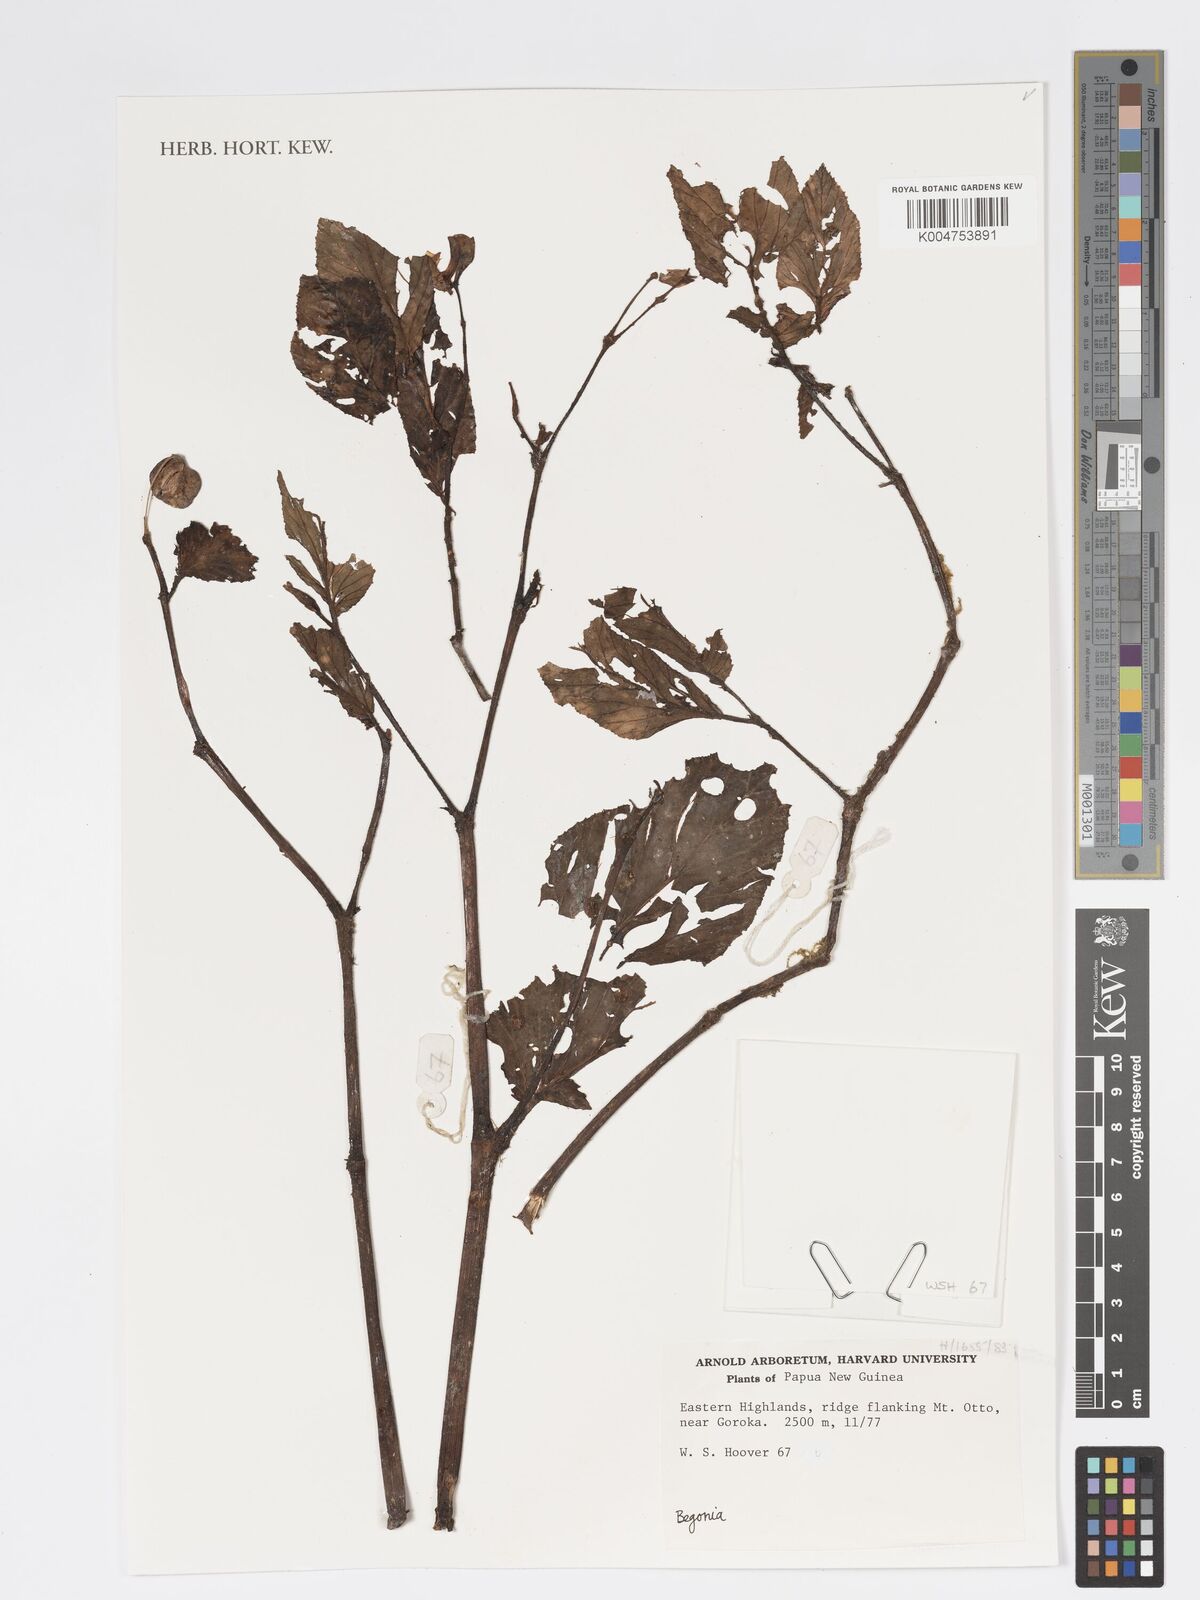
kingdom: Plantae
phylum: Tracheophyta
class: Magnoliopsida
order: Cucurbitales
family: Begoniaceae
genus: Begonia
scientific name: Begonia
